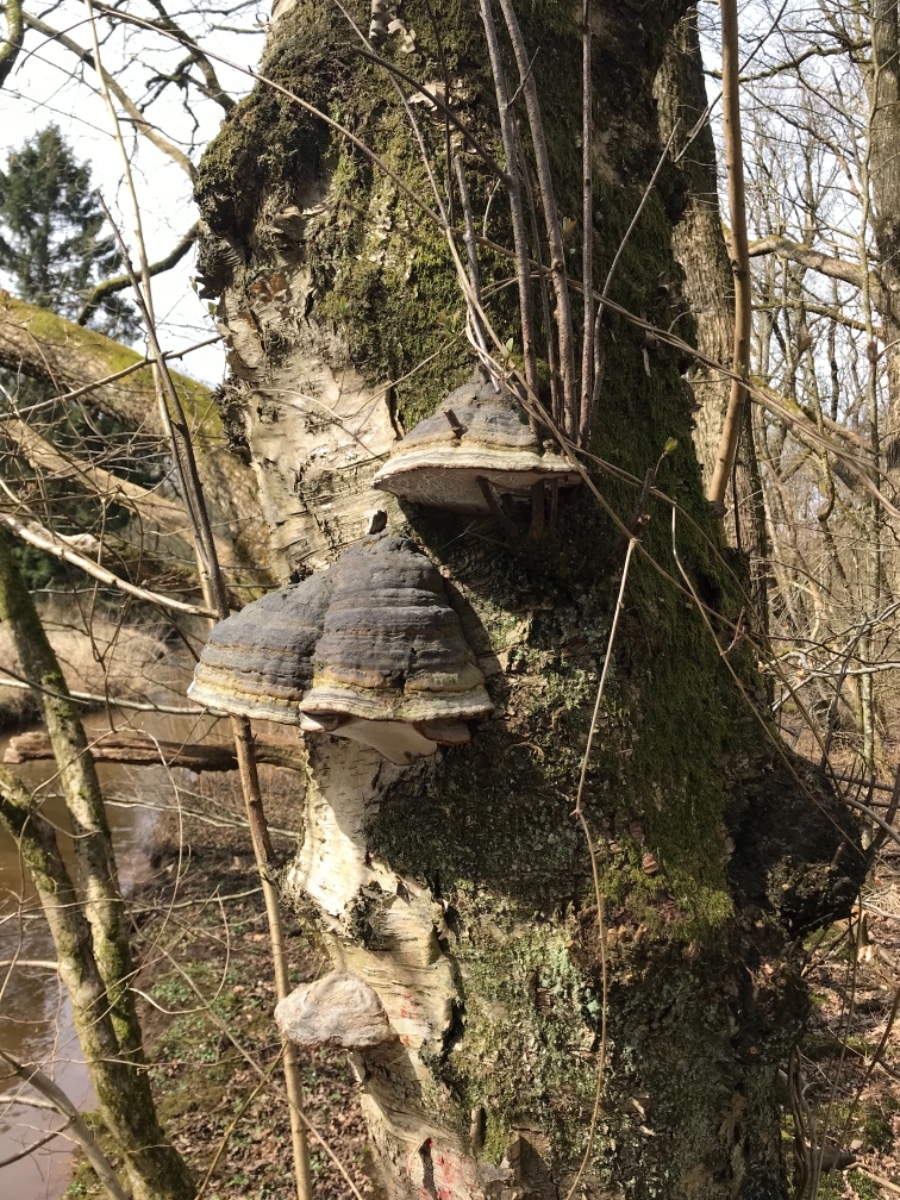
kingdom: Fungi
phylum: Basidiomycota
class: Agaricomycetes
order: Polyporales
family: Polyporaceae
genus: Fomes
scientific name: Fomes fomentarius
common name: tøndersvamp
